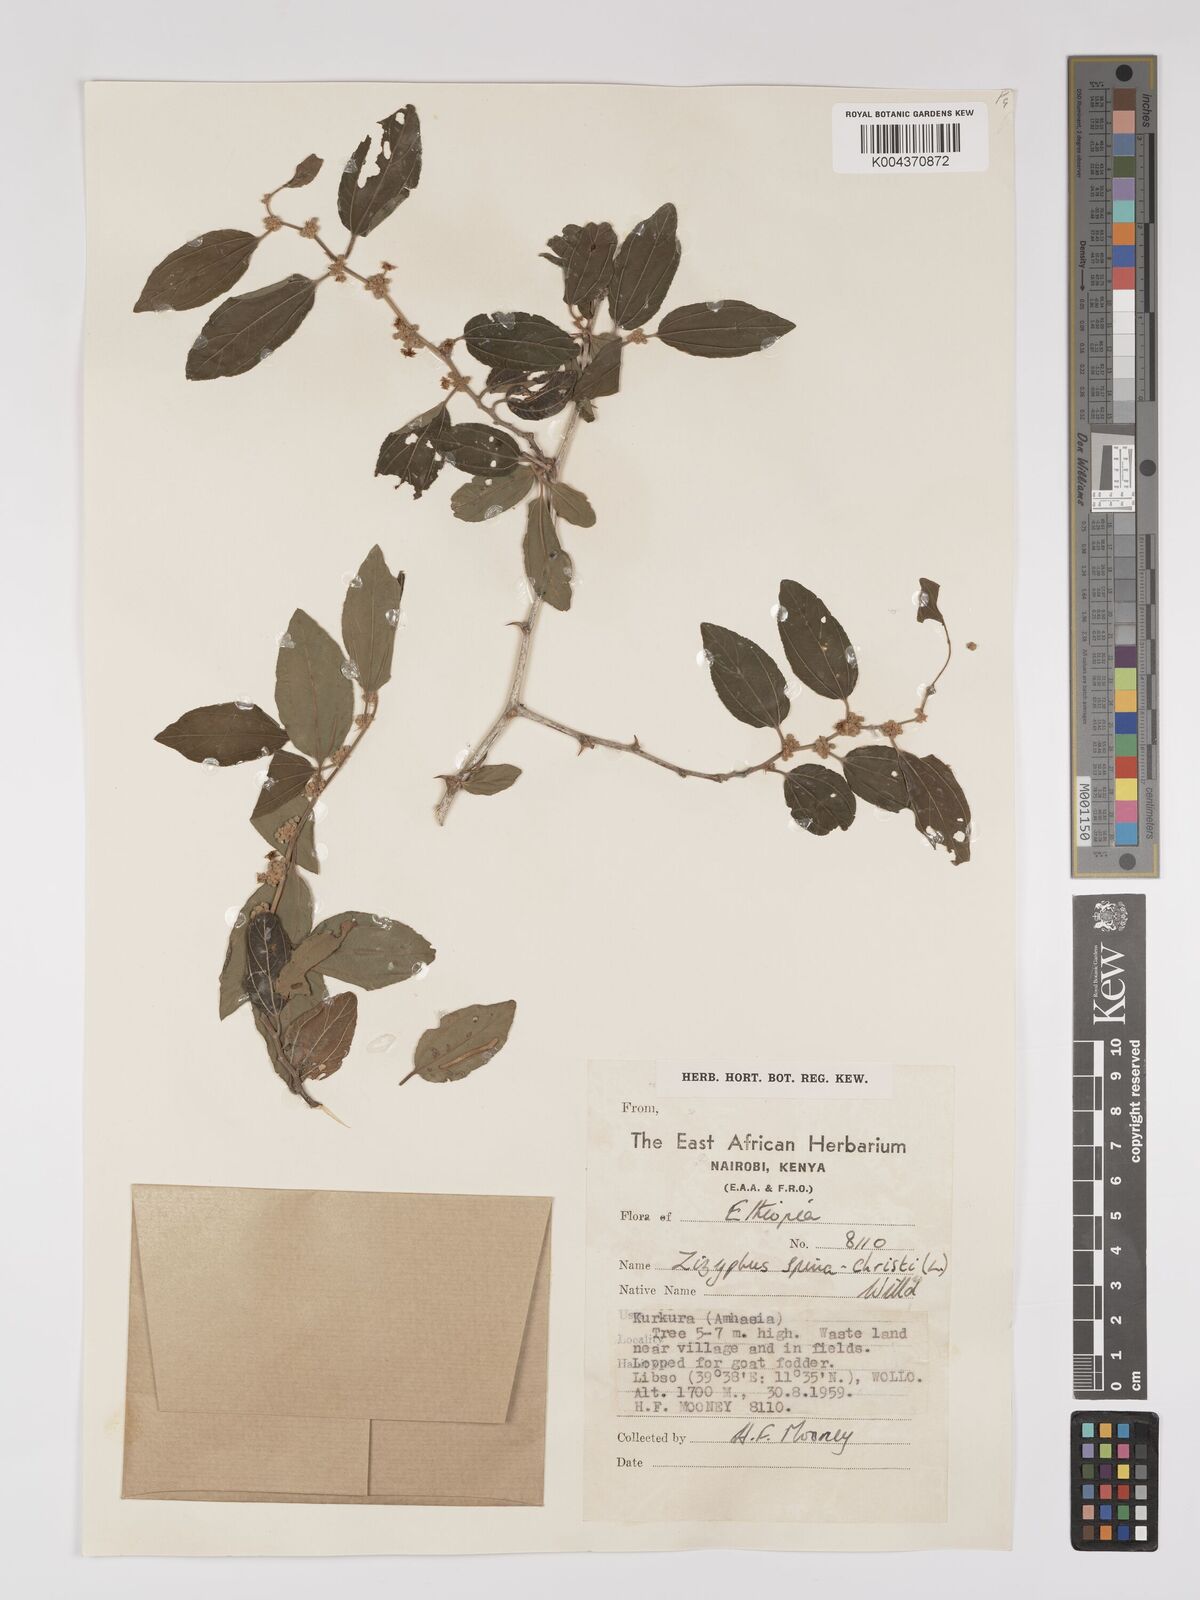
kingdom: Plantae
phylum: Tracheophyta
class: Magnoliopsida
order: Rosales
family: Rhamnaceae
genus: Ziziphus
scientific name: Ziziphus spina-christi
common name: Syrian christ-thorn
